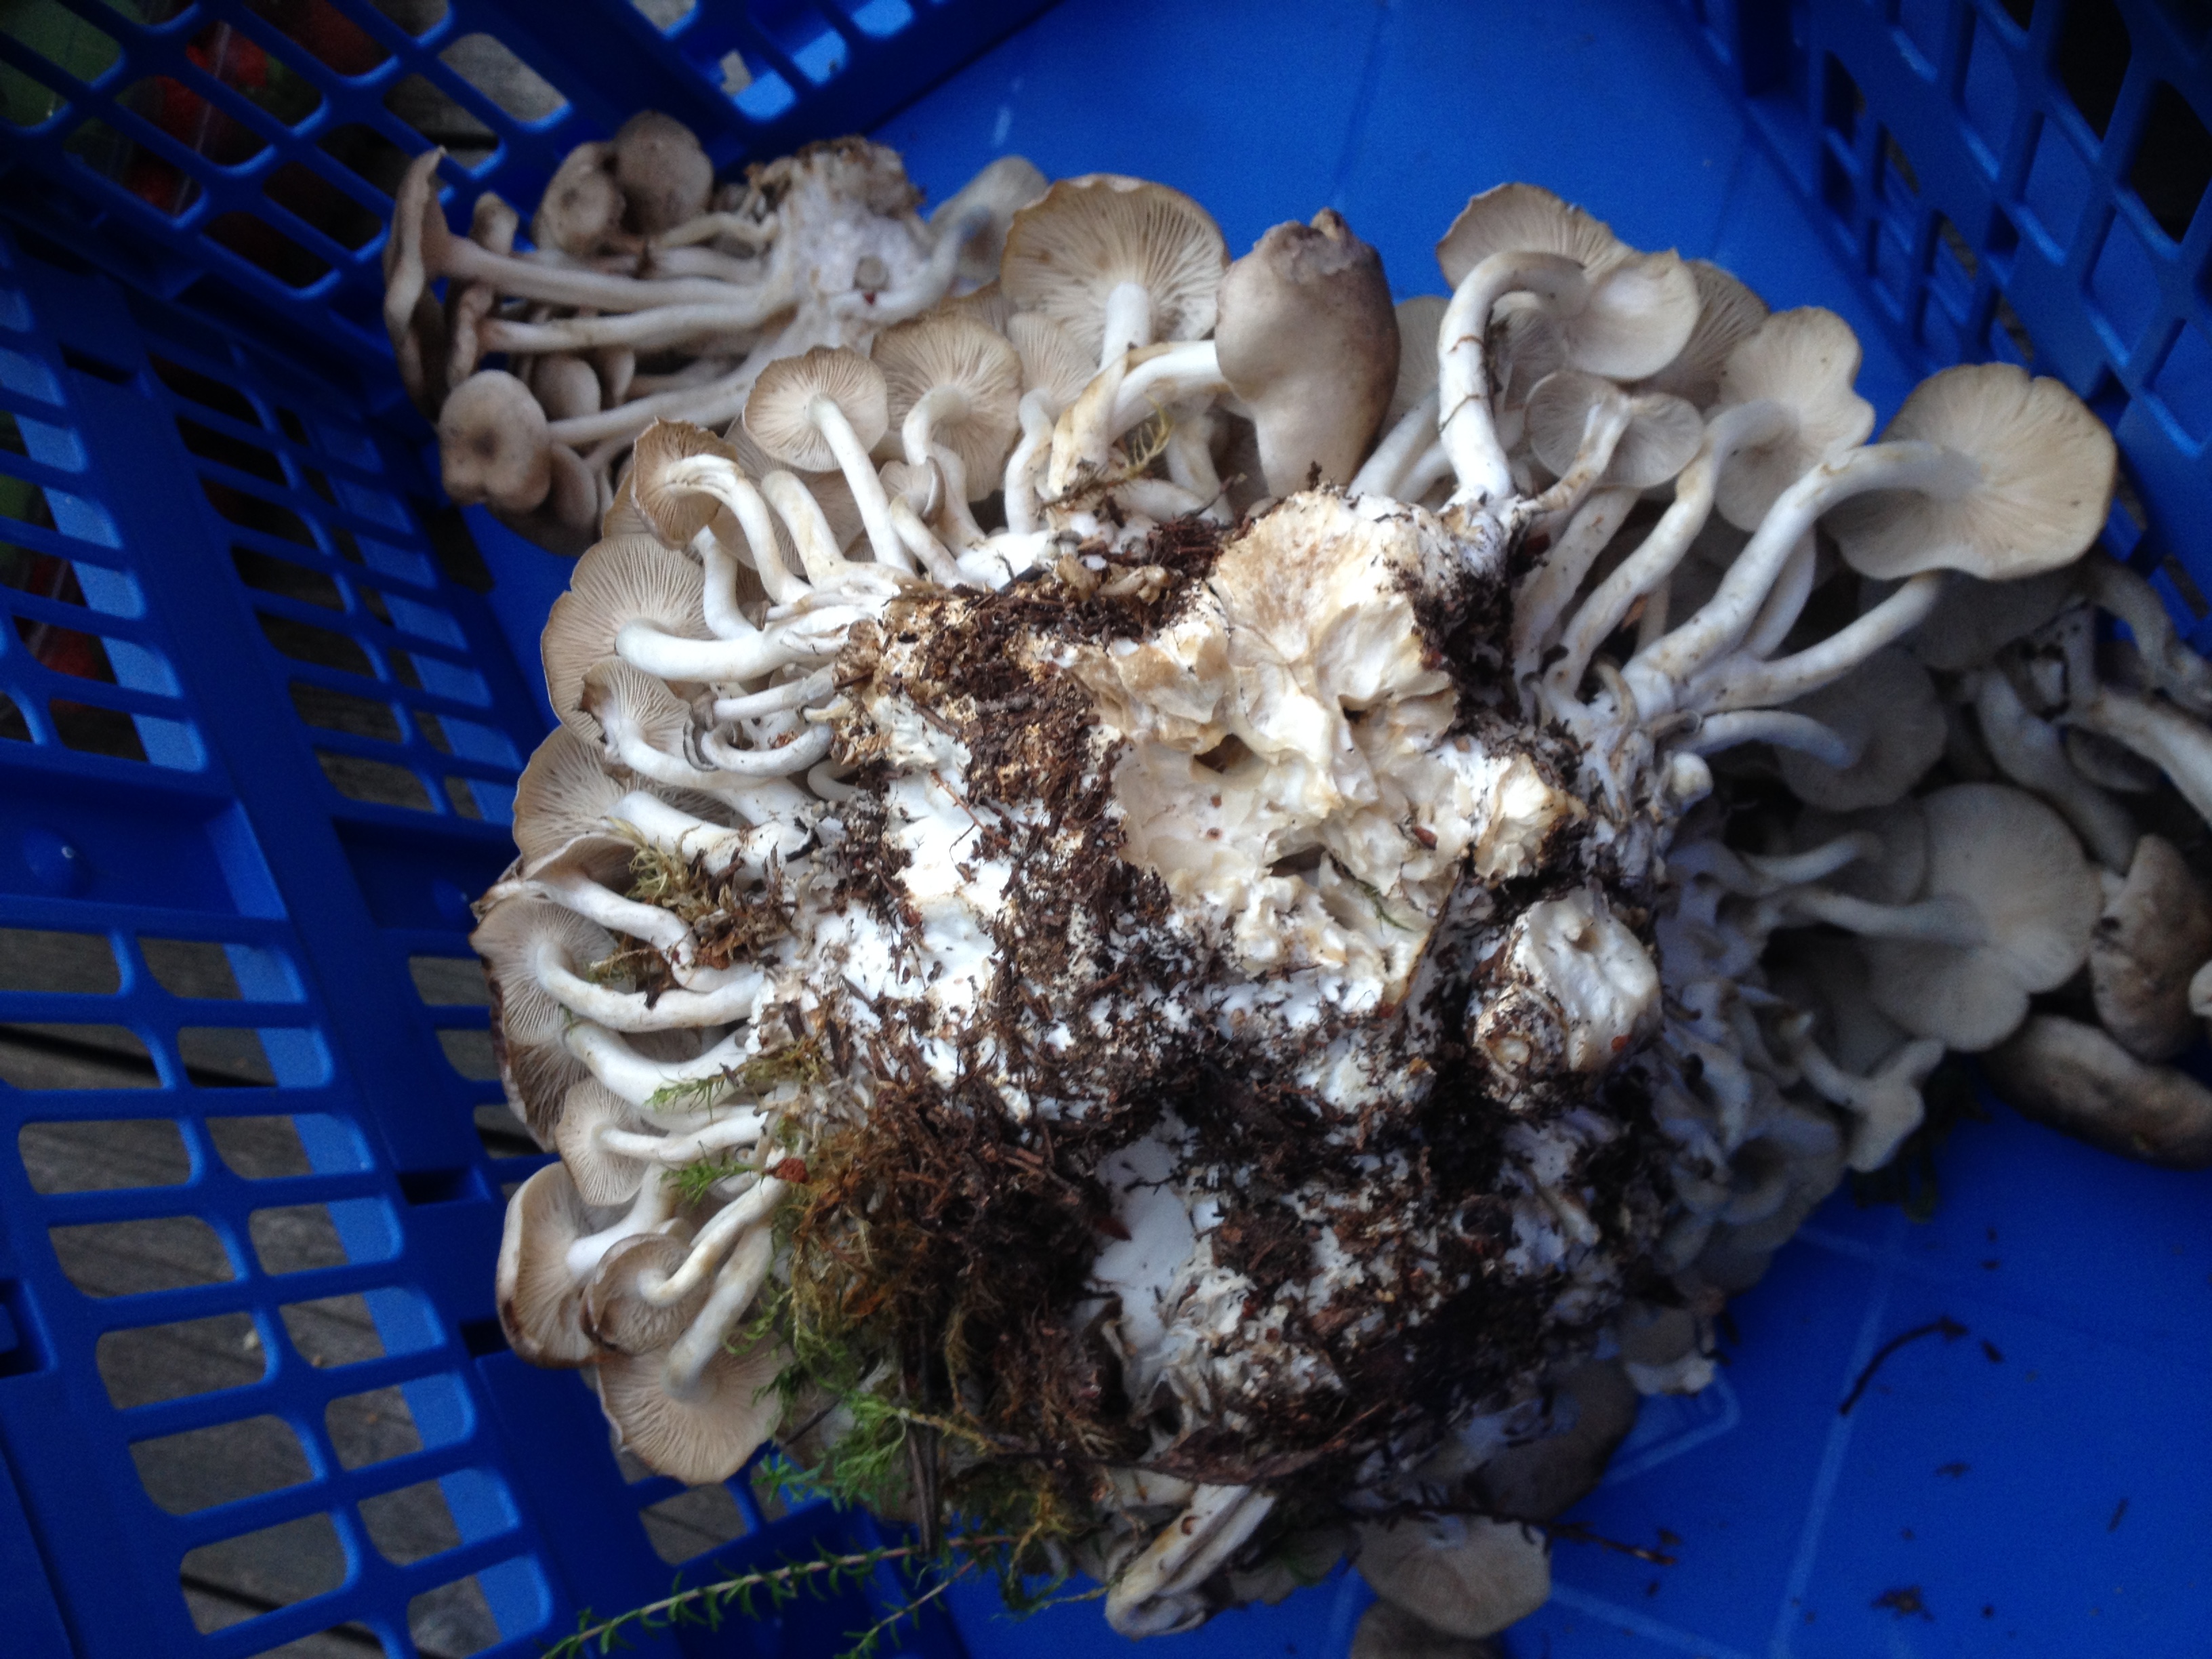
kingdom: Fungi
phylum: Basidiomycota
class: Agaricomycetes
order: Agaricales
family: Lyophyllaceae
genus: Lyophyllum
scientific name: Lyophyllum decastes
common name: Clustered domecap
